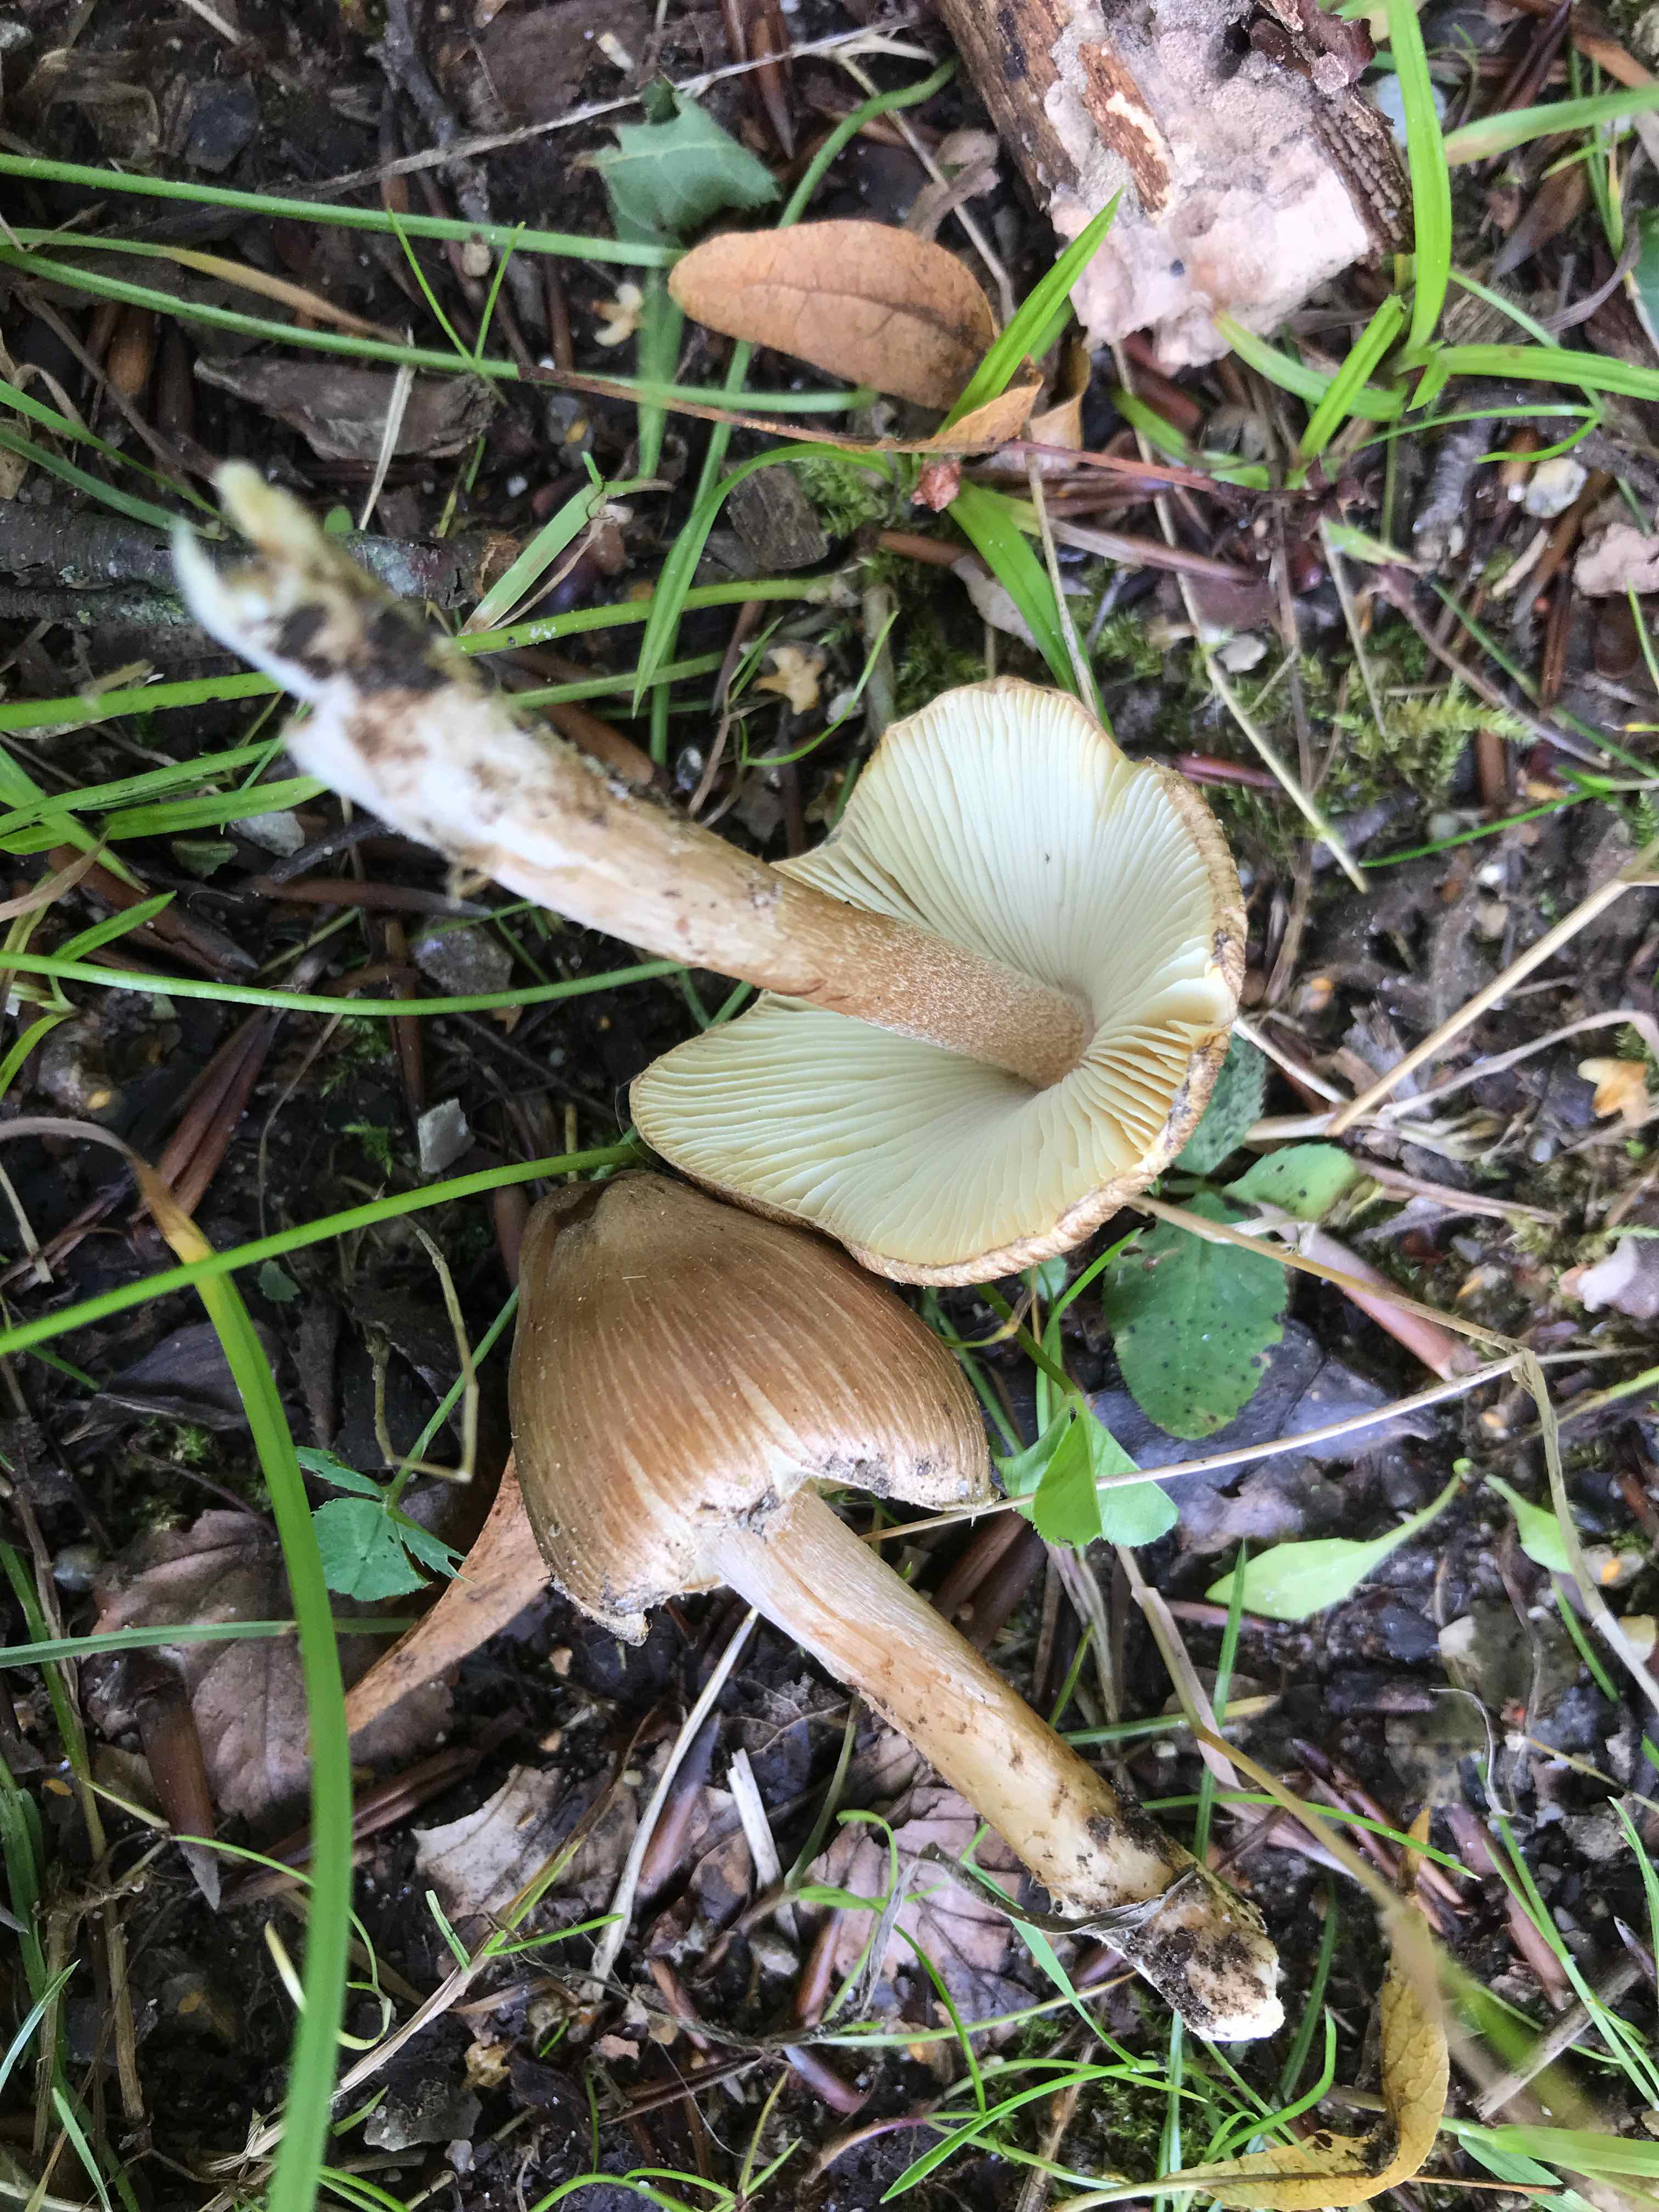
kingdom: Fungi
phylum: Basidiomycota
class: Agaricomycetes
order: Agaricales
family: Inocybaceae
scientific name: Inocybaceae
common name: trævlhatfamilien
